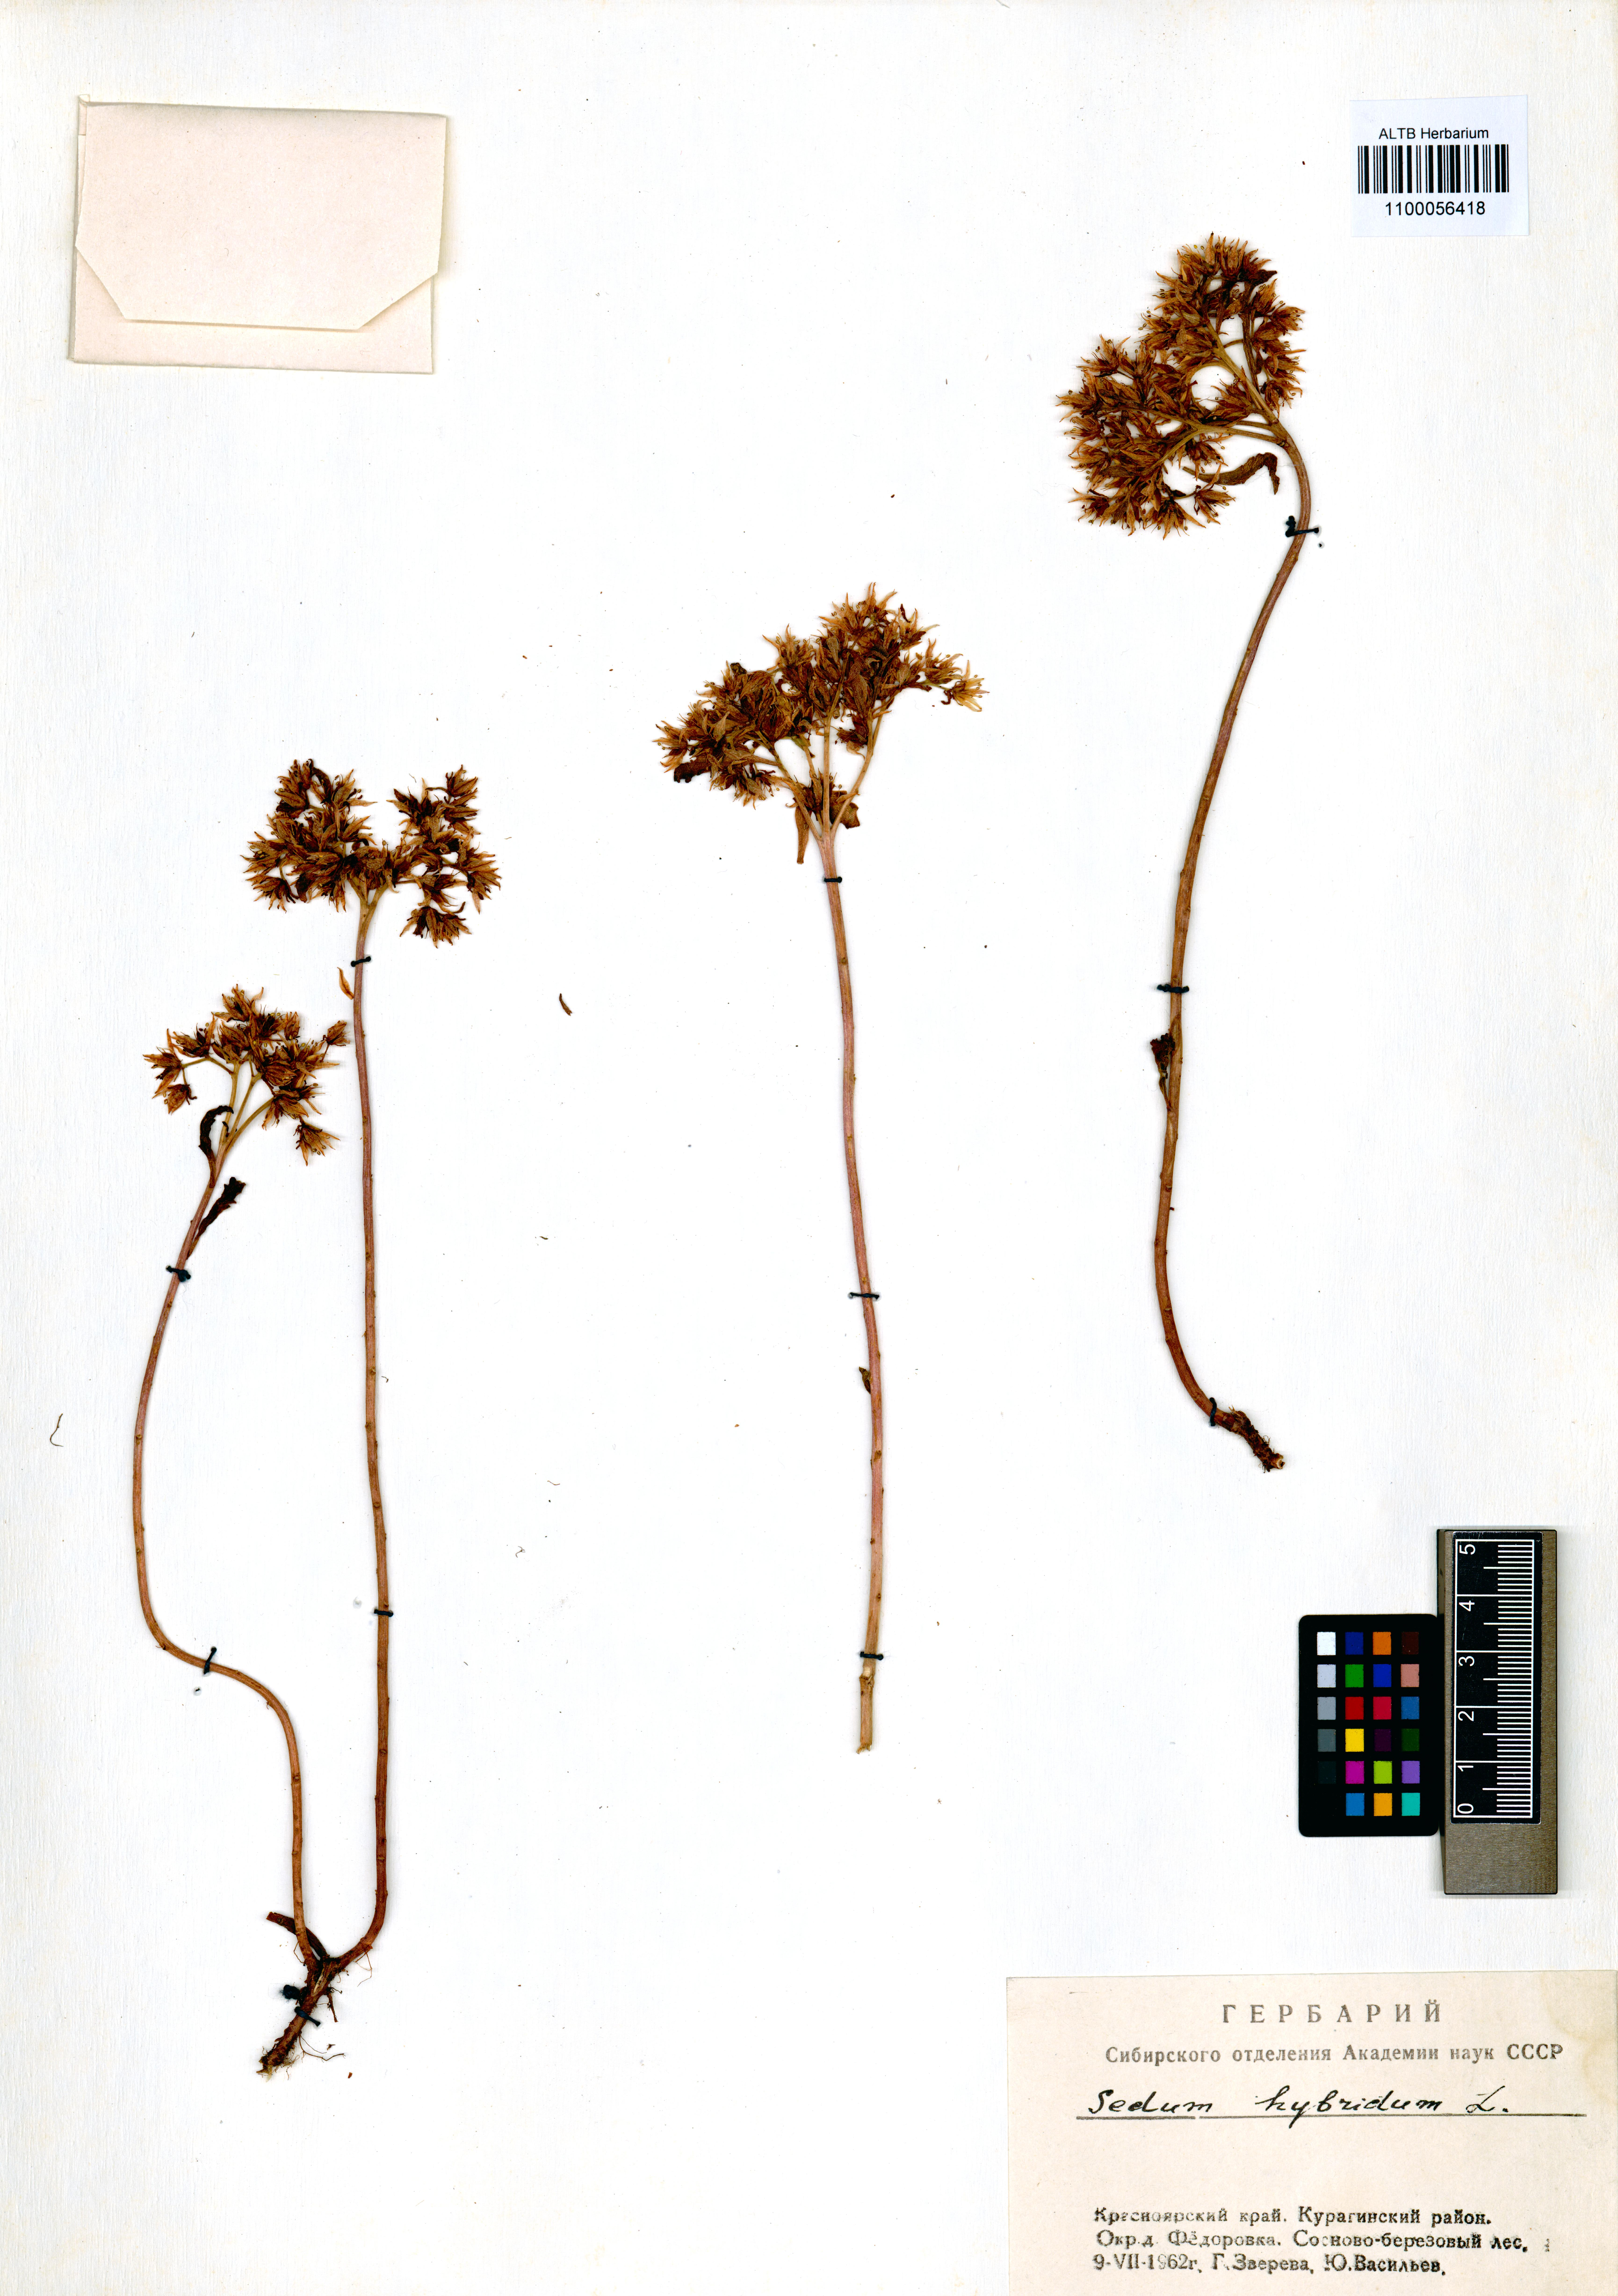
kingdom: Plantae
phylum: Tracheophyta
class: Magnoliopsida
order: Saxifragales
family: Crassulaceae
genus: Phedimus
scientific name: Phedimus hybridus
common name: Hybrid stonecrop
